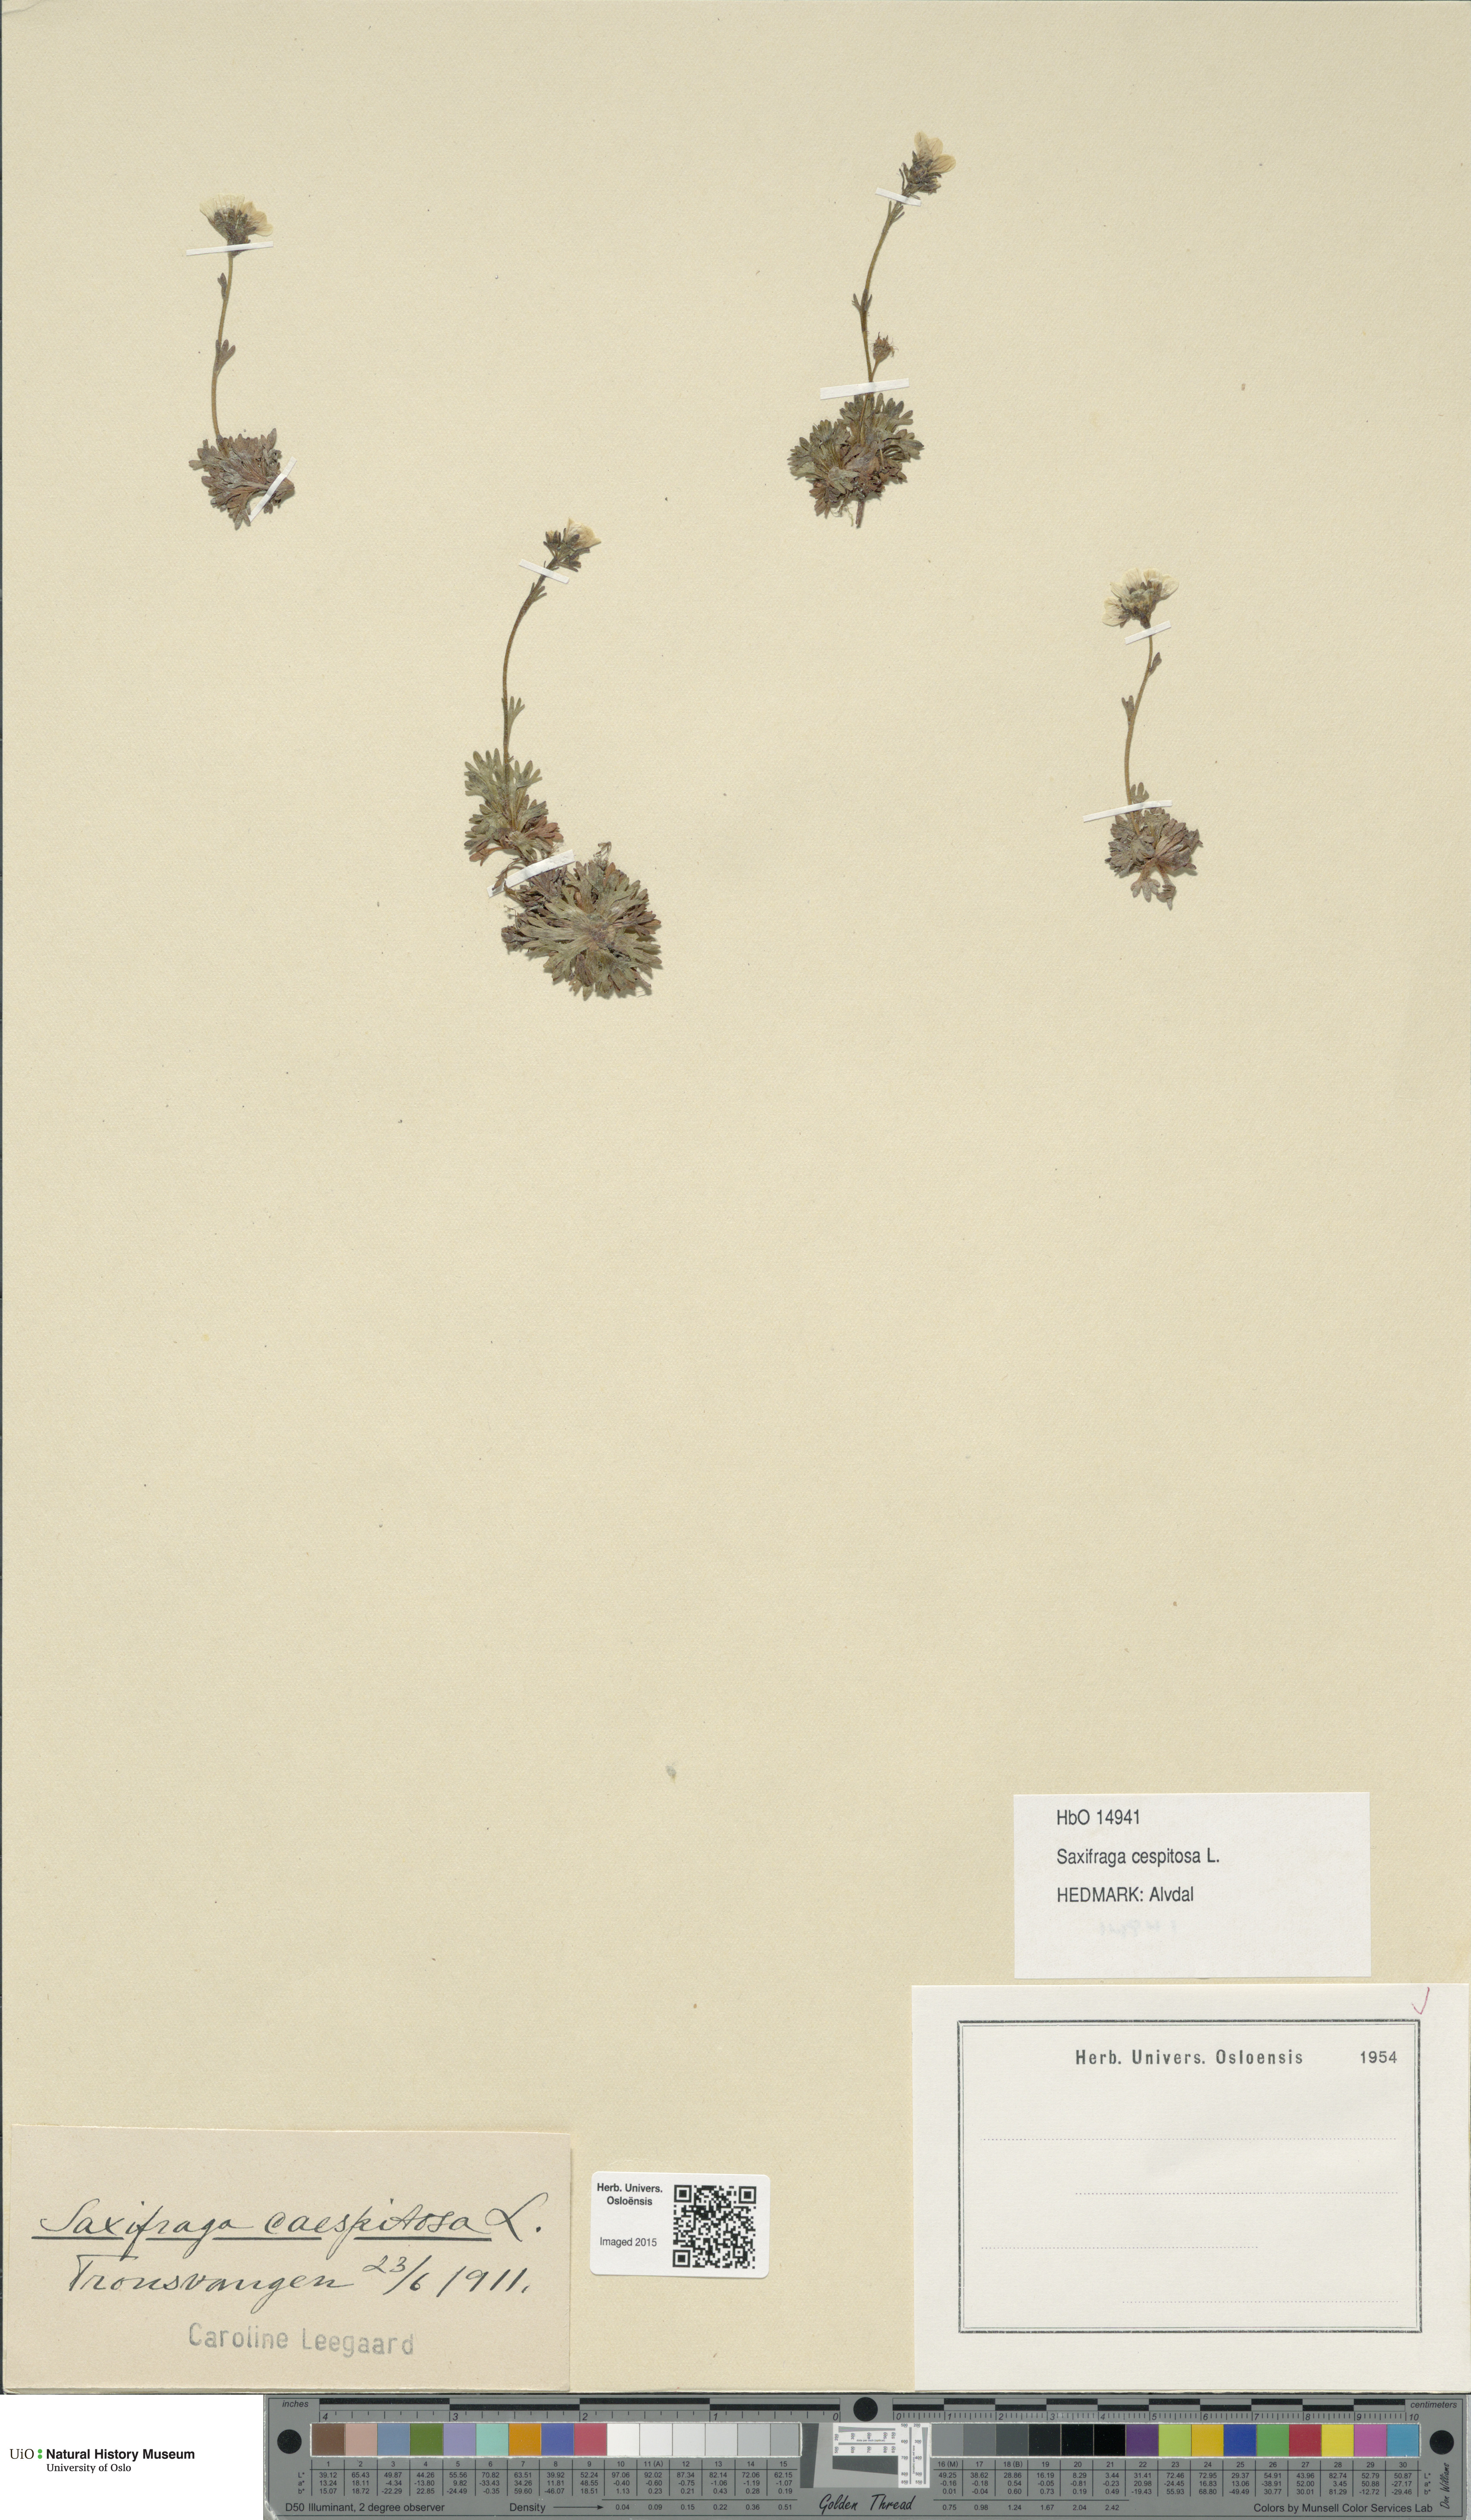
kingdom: Plantae
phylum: Tracheophyta
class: Magnoliopsida
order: Saxifragales
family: Saxifragaceae
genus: Saxifraga
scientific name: Saxifraga cespitosa
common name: Tufted saxifrage
